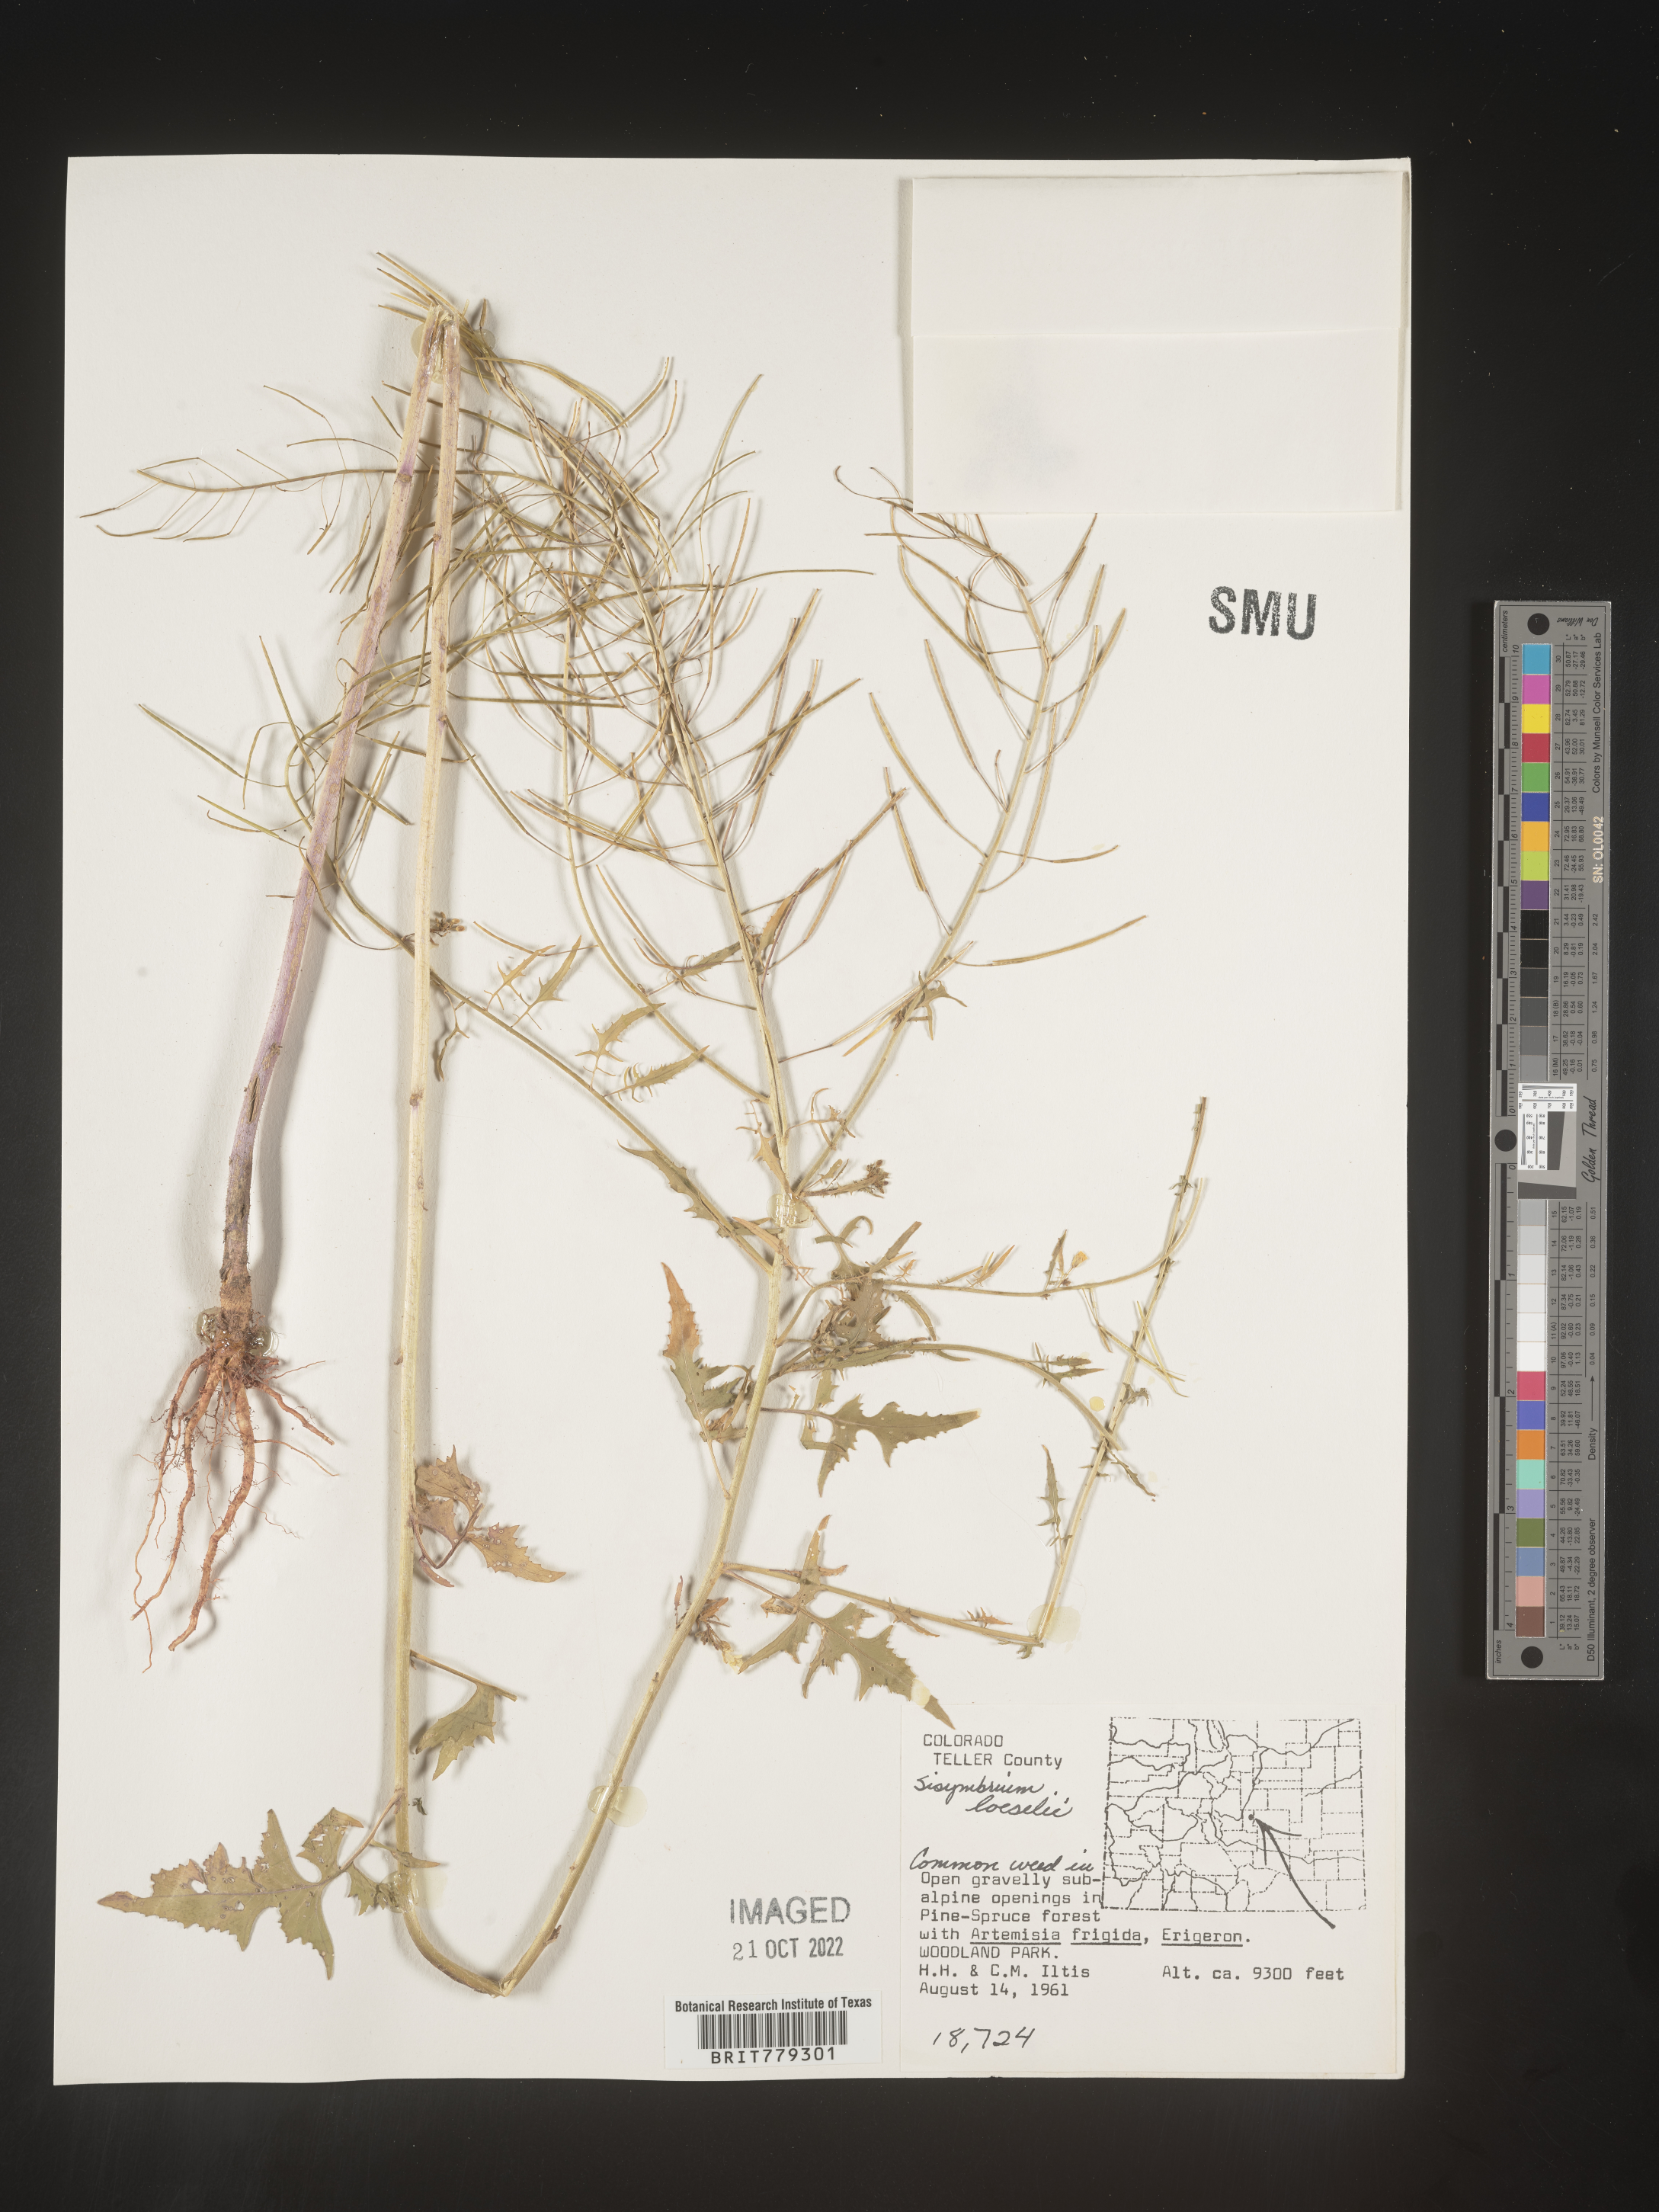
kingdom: Plantae
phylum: Tracheophyta
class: Magnoliopsida
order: Brassicales
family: Brassicaceae
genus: Sisymbrium
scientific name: Sisymbrium
